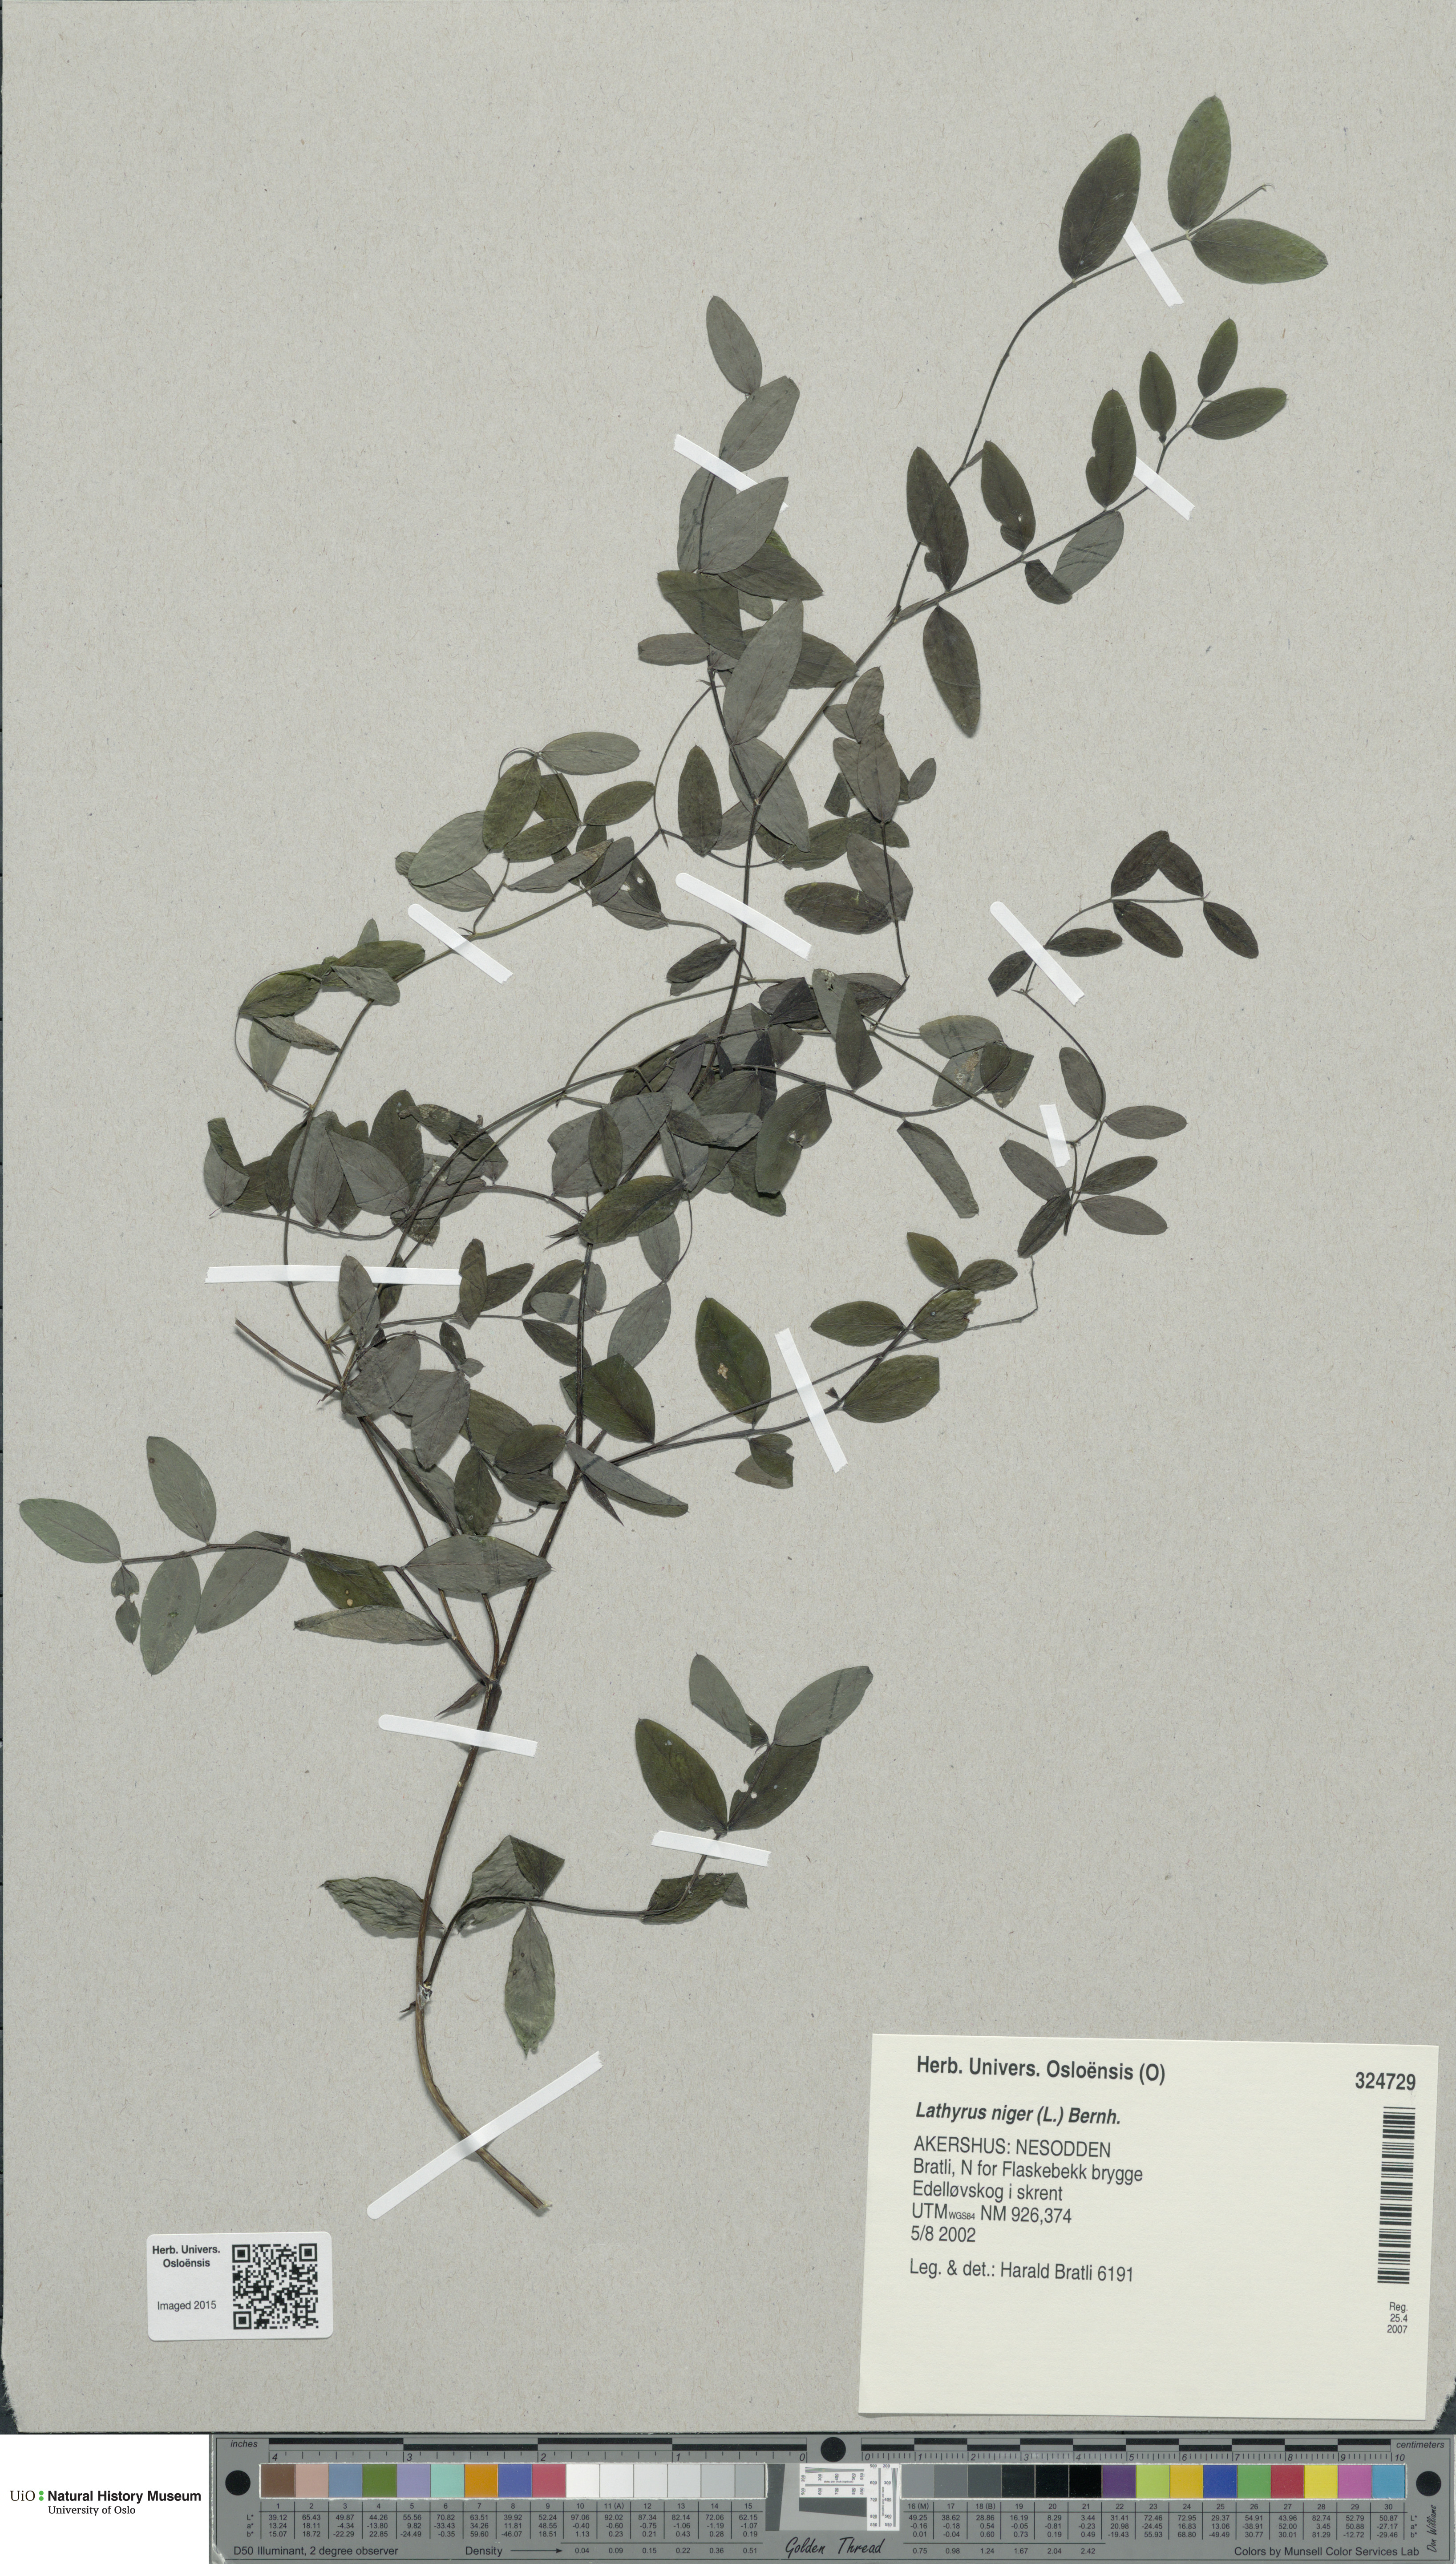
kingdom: Plantae
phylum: Tracheophyta
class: Magnoliopsida
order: Fabales
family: Fabaceae
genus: Lathyrus
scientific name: Lathyrus niger
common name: Black pea
